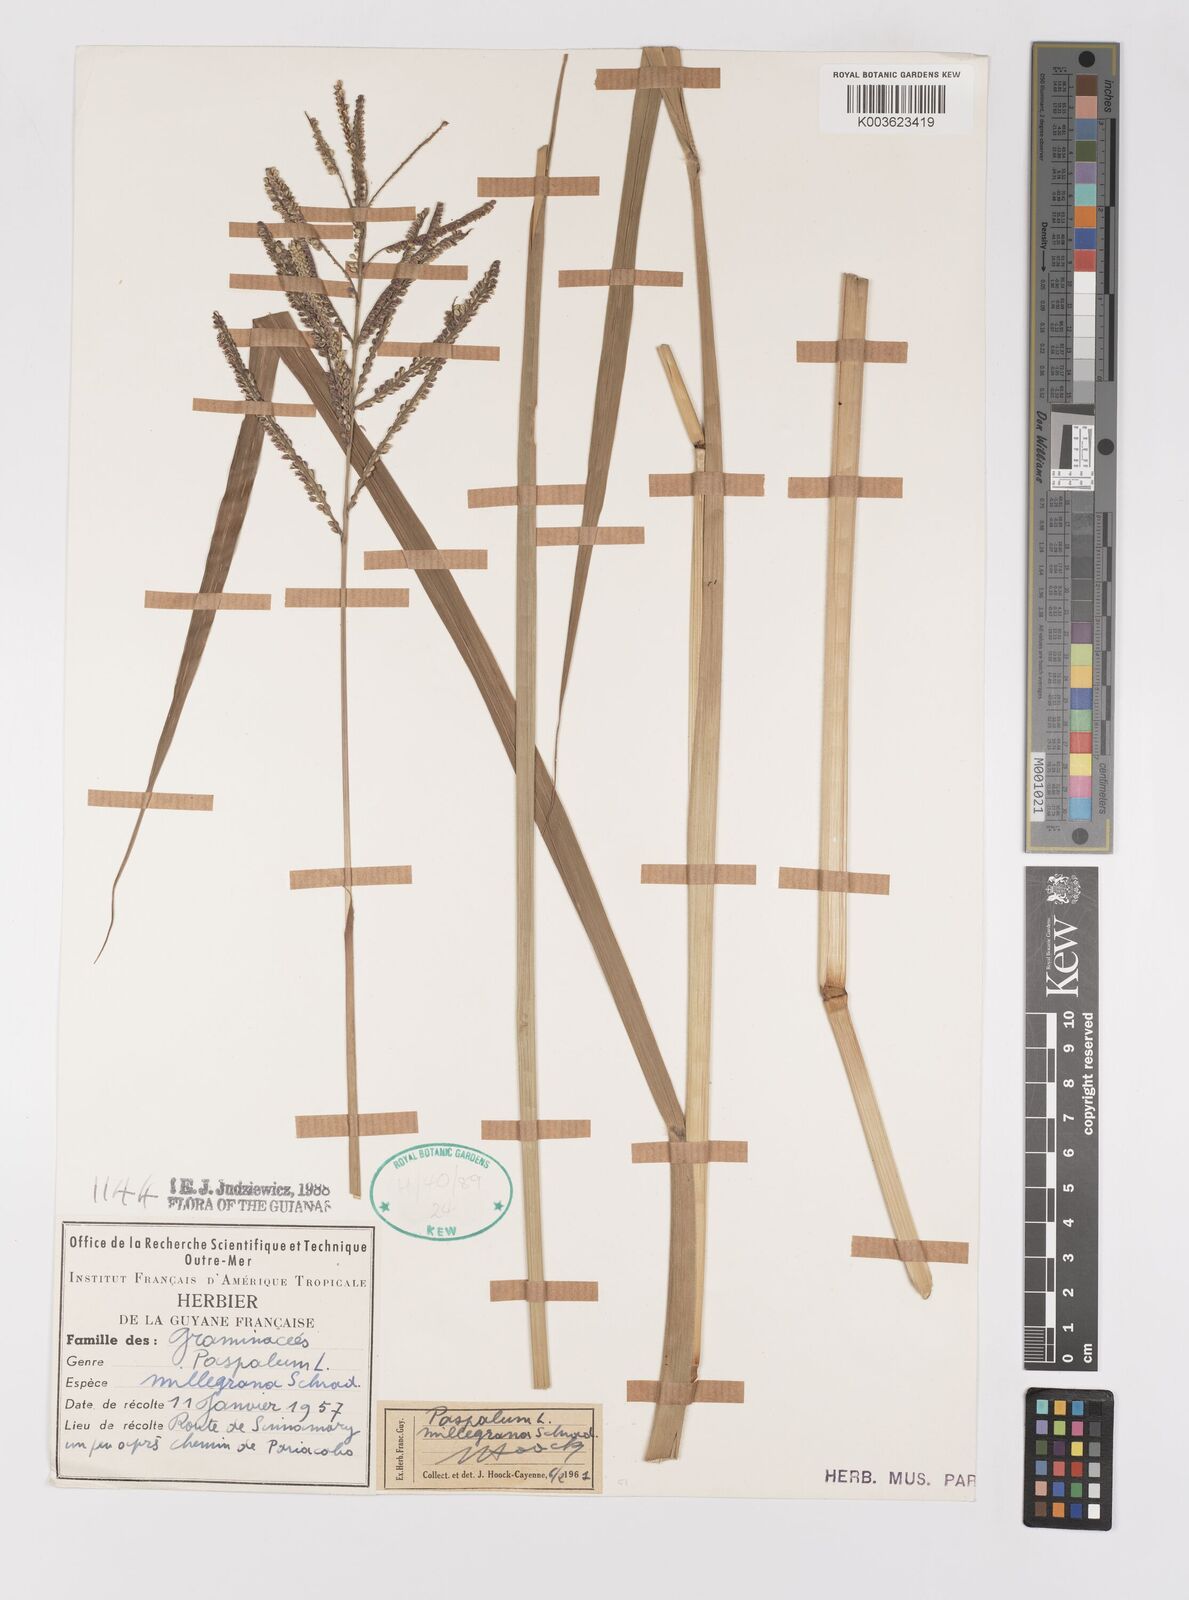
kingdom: Plantae
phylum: Tracheophyta
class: Liliopsida
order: Poales
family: Poaceae
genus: Paspalum
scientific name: Paspalum millegranum
